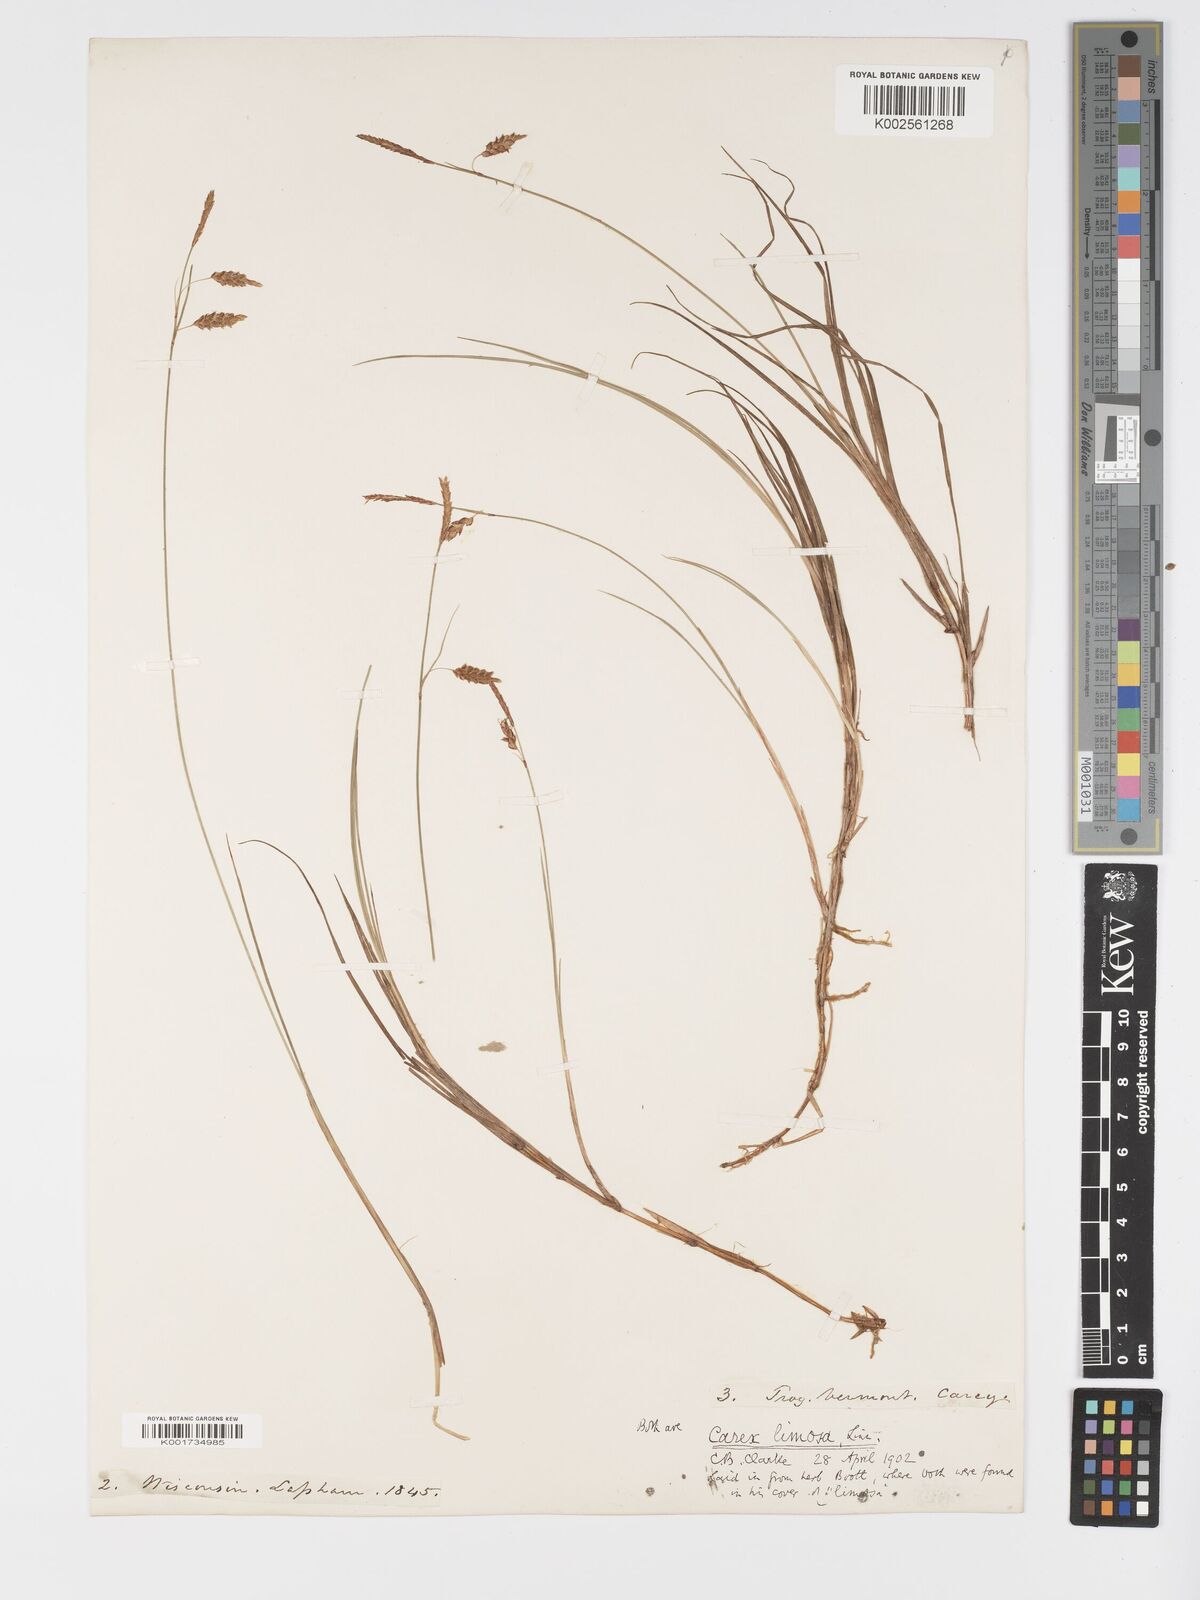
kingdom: Plantae
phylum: Tracheophyta
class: Liliopsida
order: Poales
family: Cyperaceae
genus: Carex
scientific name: Carex limosa
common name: Bog sedge
